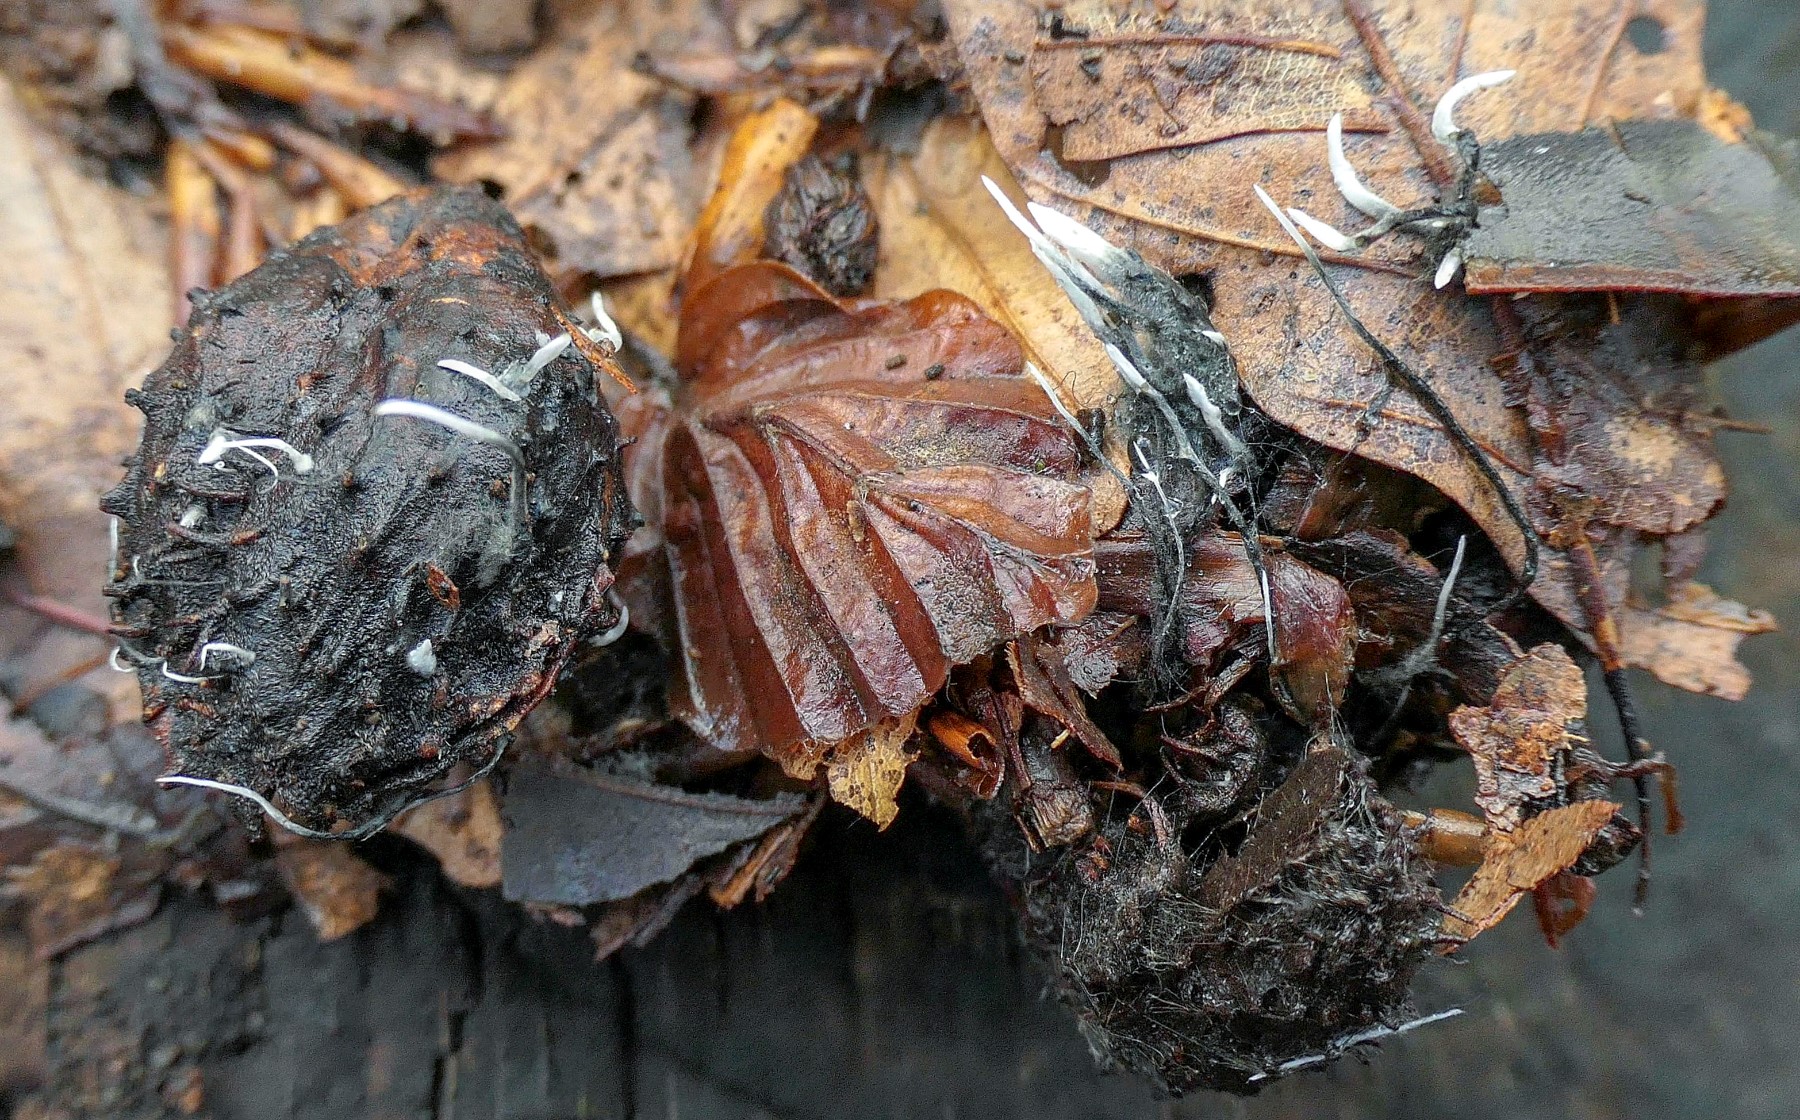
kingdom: Fungi
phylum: Ascomycota
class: Sordariomycetes
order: Xylariales
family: Xylariaceae
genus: Xylaria
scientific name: Xylaria carpophila
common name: bogskål-stødsvamp
